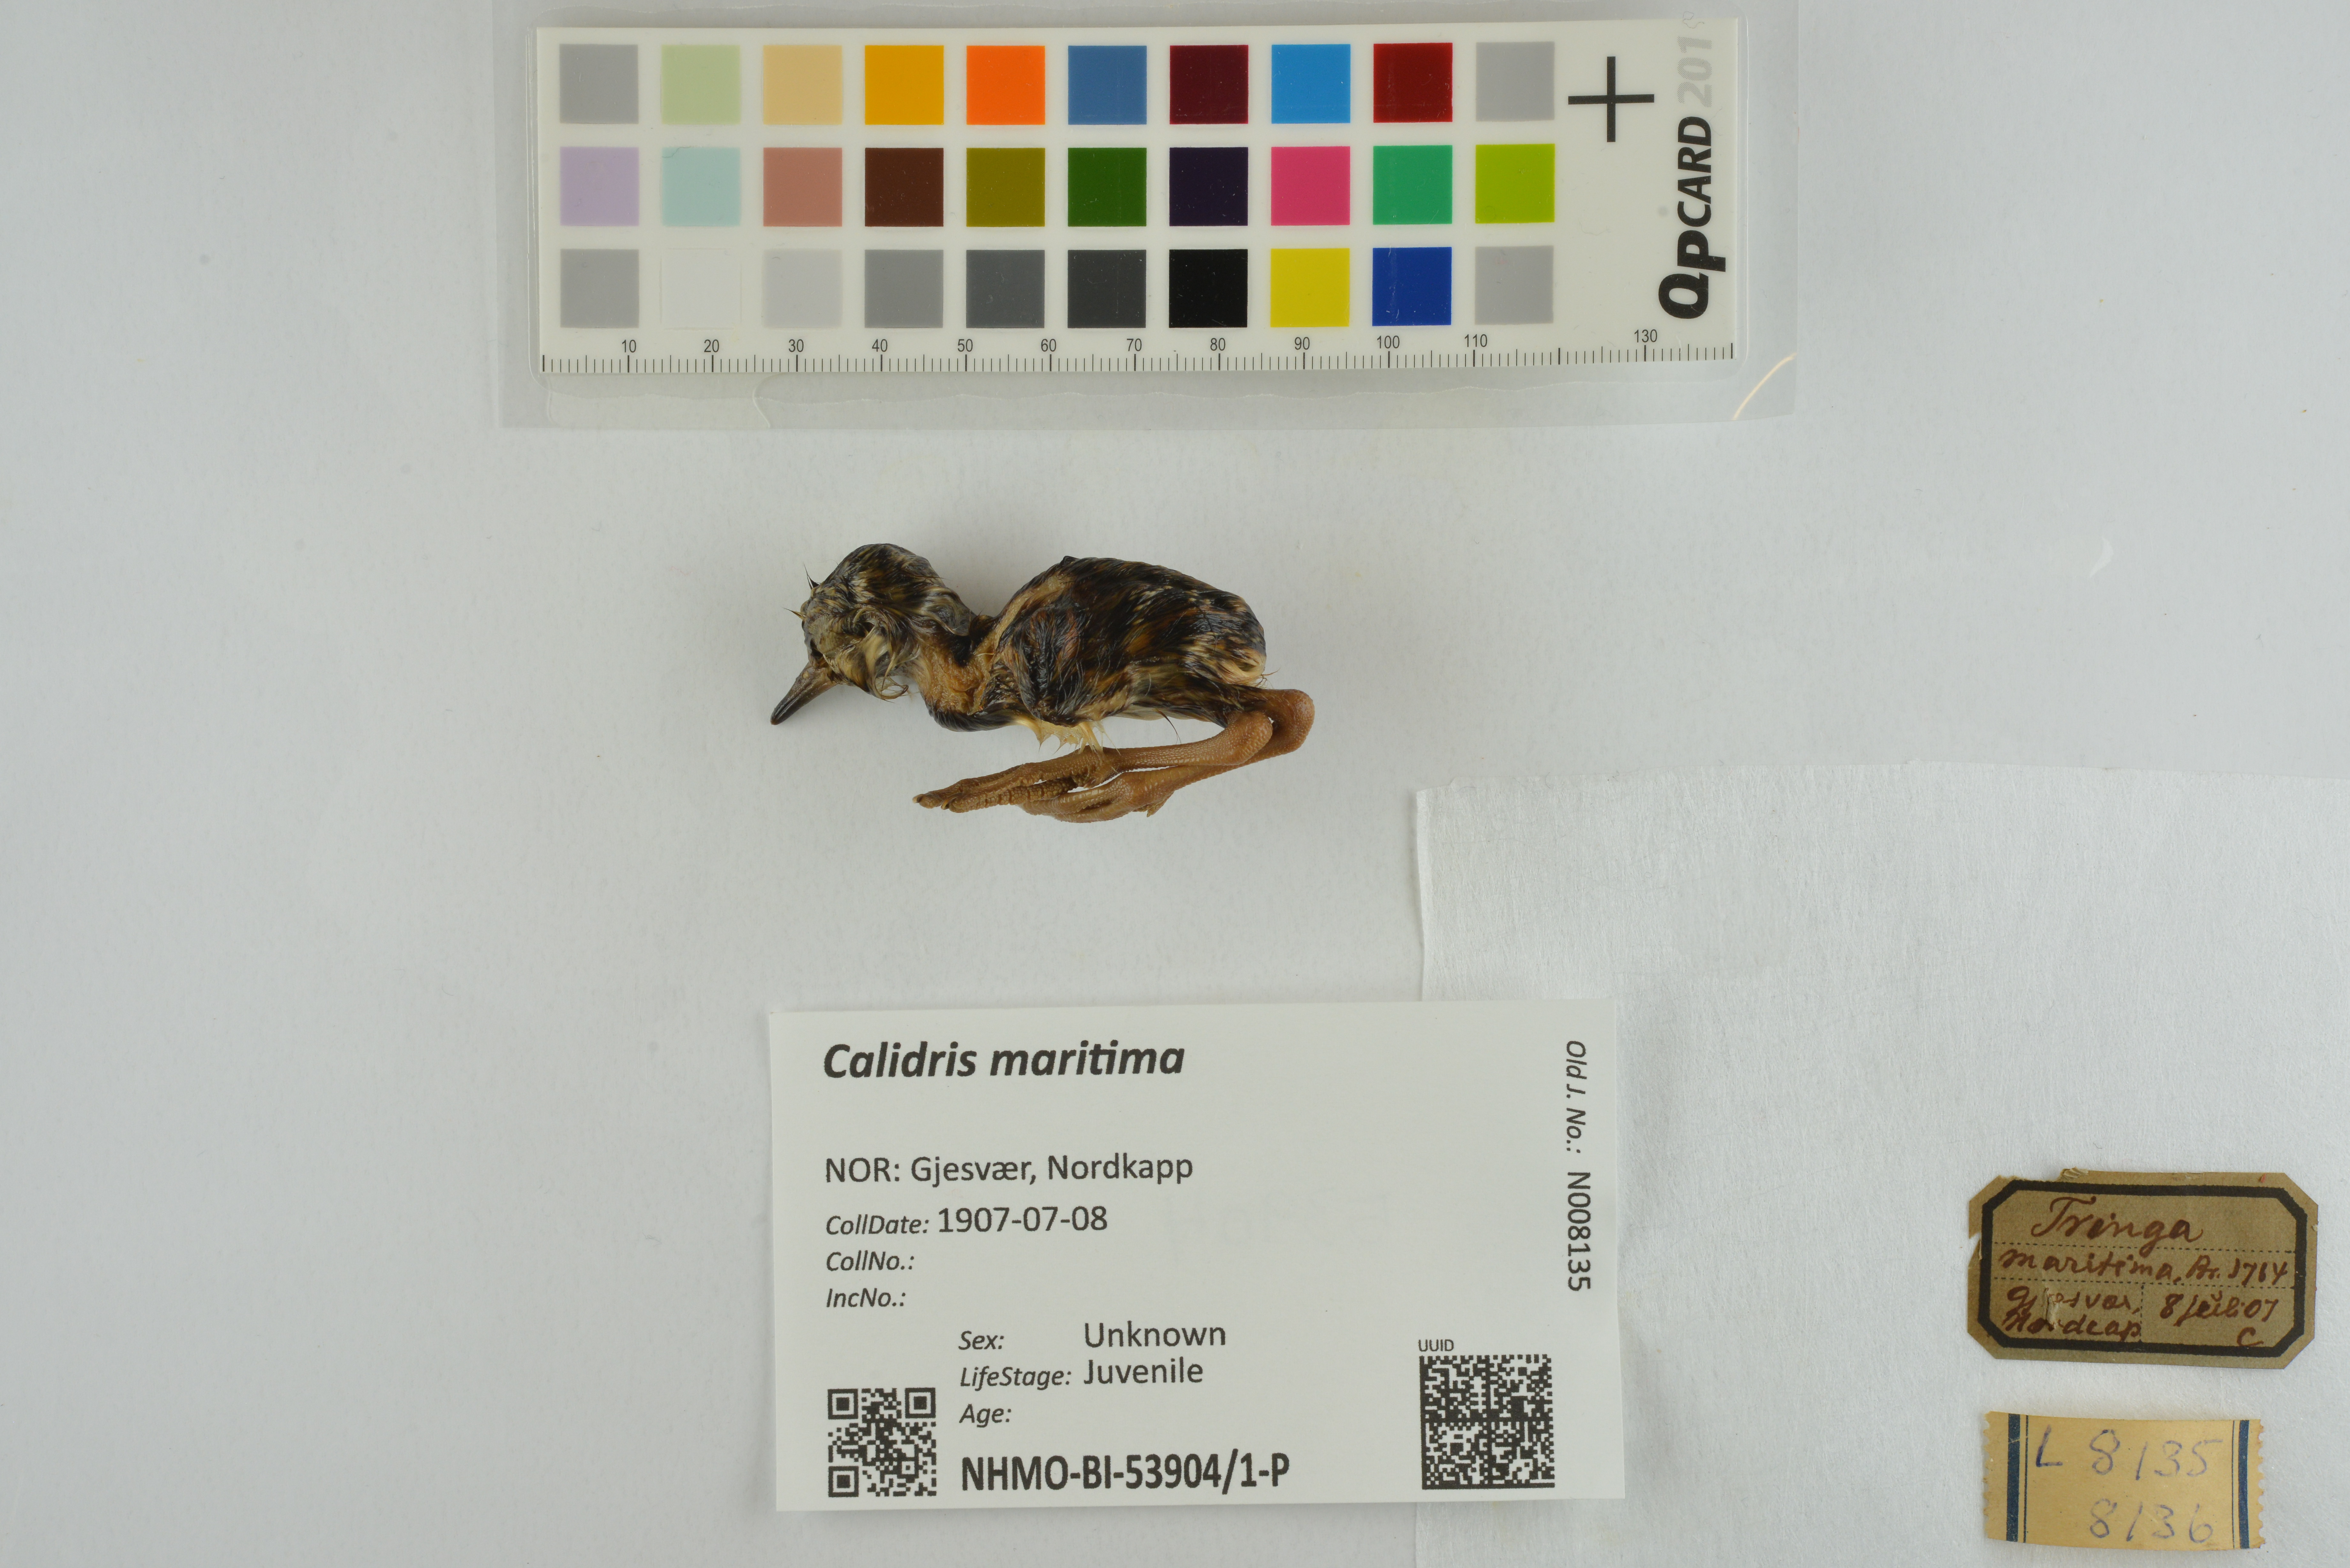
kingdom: Animalia
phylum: Chordata
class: Aves
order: Charadriiformes
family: Scolopacidae
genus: Calidris
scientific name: Calidris maritima
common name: Purple sandpiper
